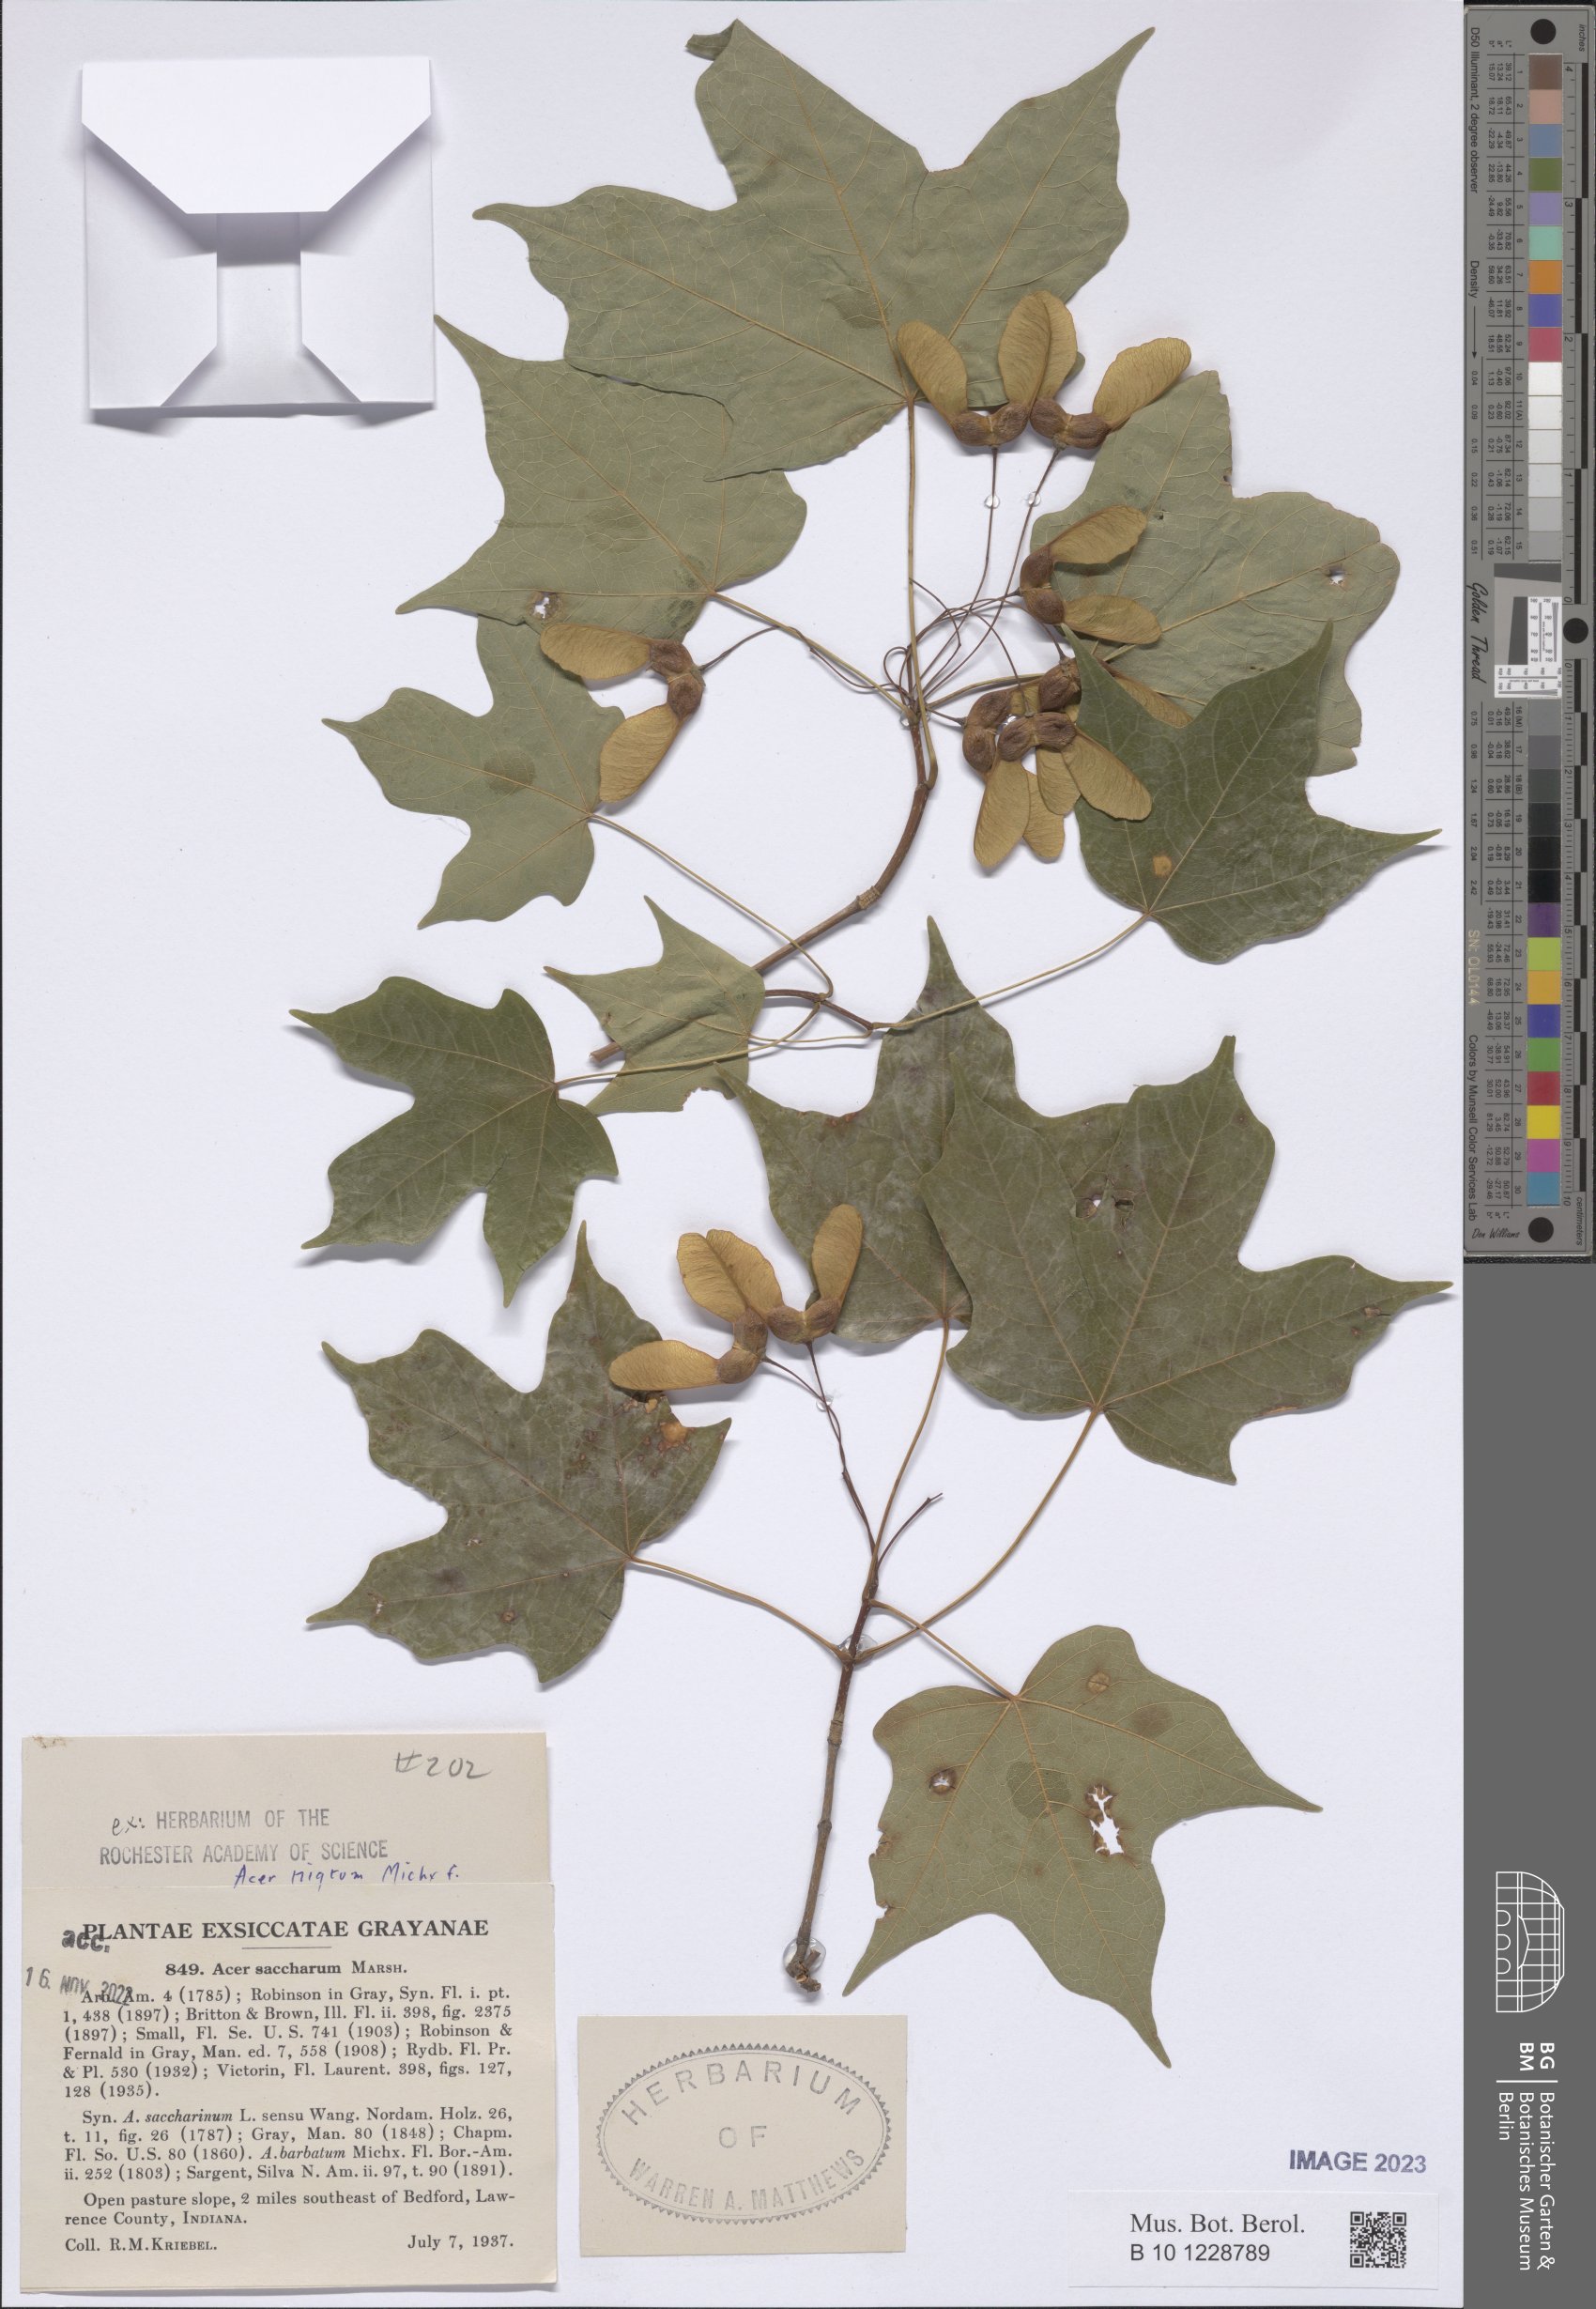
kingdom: Plantae
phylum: Tracheophyta
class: Magnoliopsida
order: Sapindales
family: Sapindaceae
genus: Acer
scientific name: Acer nigrum
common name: Black maple
